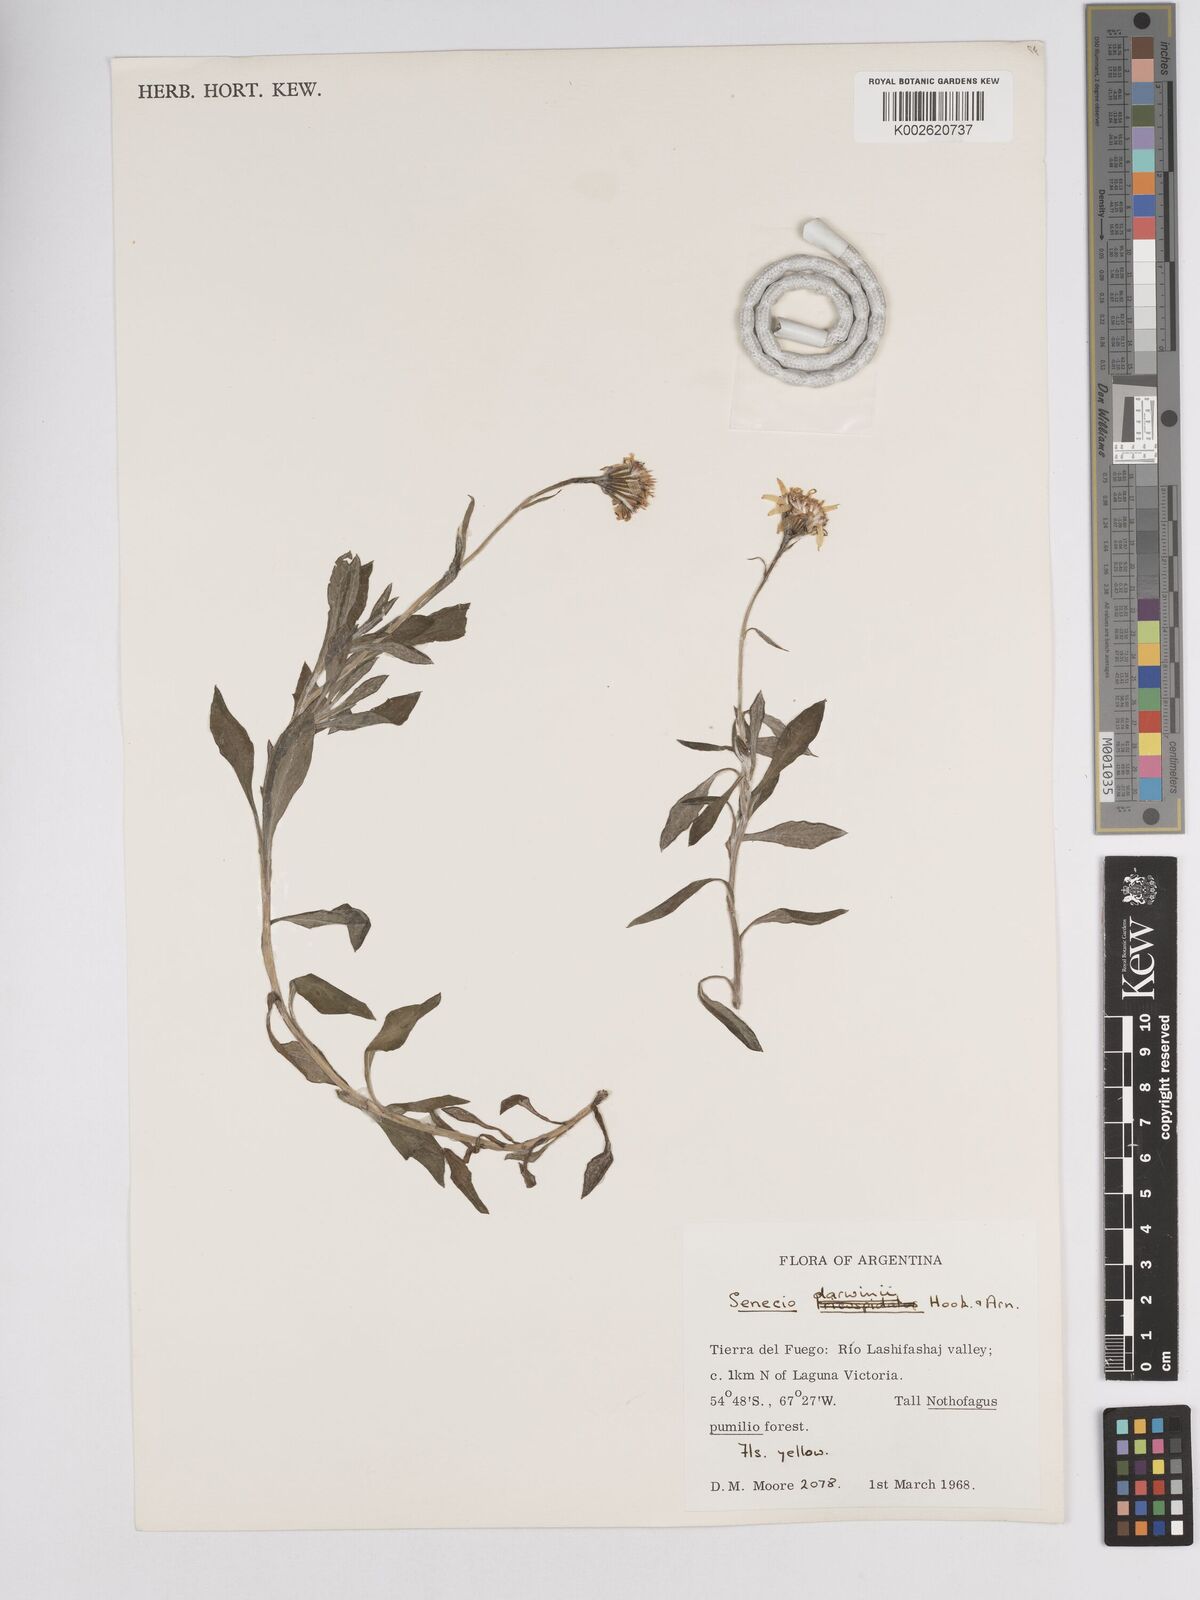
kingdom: Plantae
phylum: Tracheophyta
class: Magnoliopsida
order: Asterales
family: Asteraceae
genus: Senecio
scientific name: Senecio darwinii
